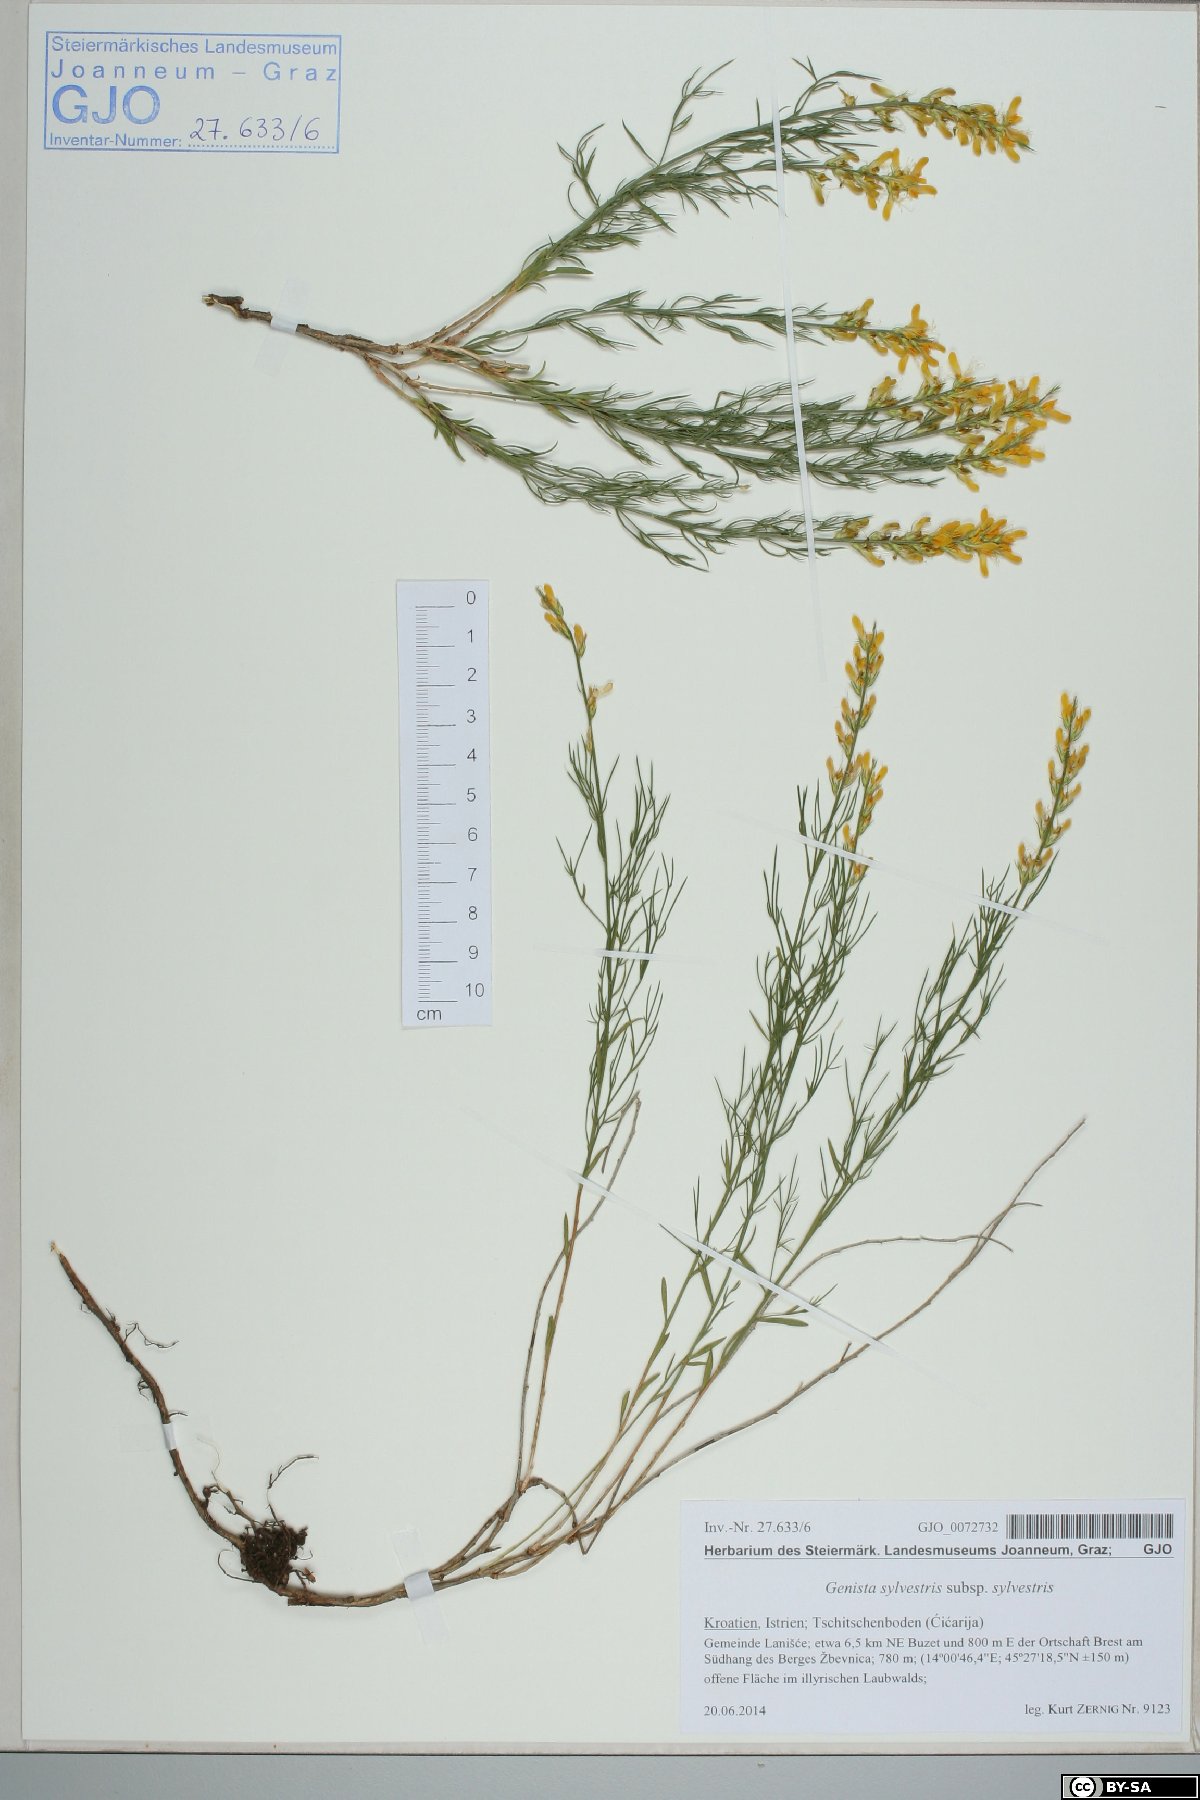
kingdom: Plantae
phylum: Tracheophyta
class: Magnoliopsida
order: Fabales
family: Fabaceae
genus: Genista
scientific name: Genista sylvestris
